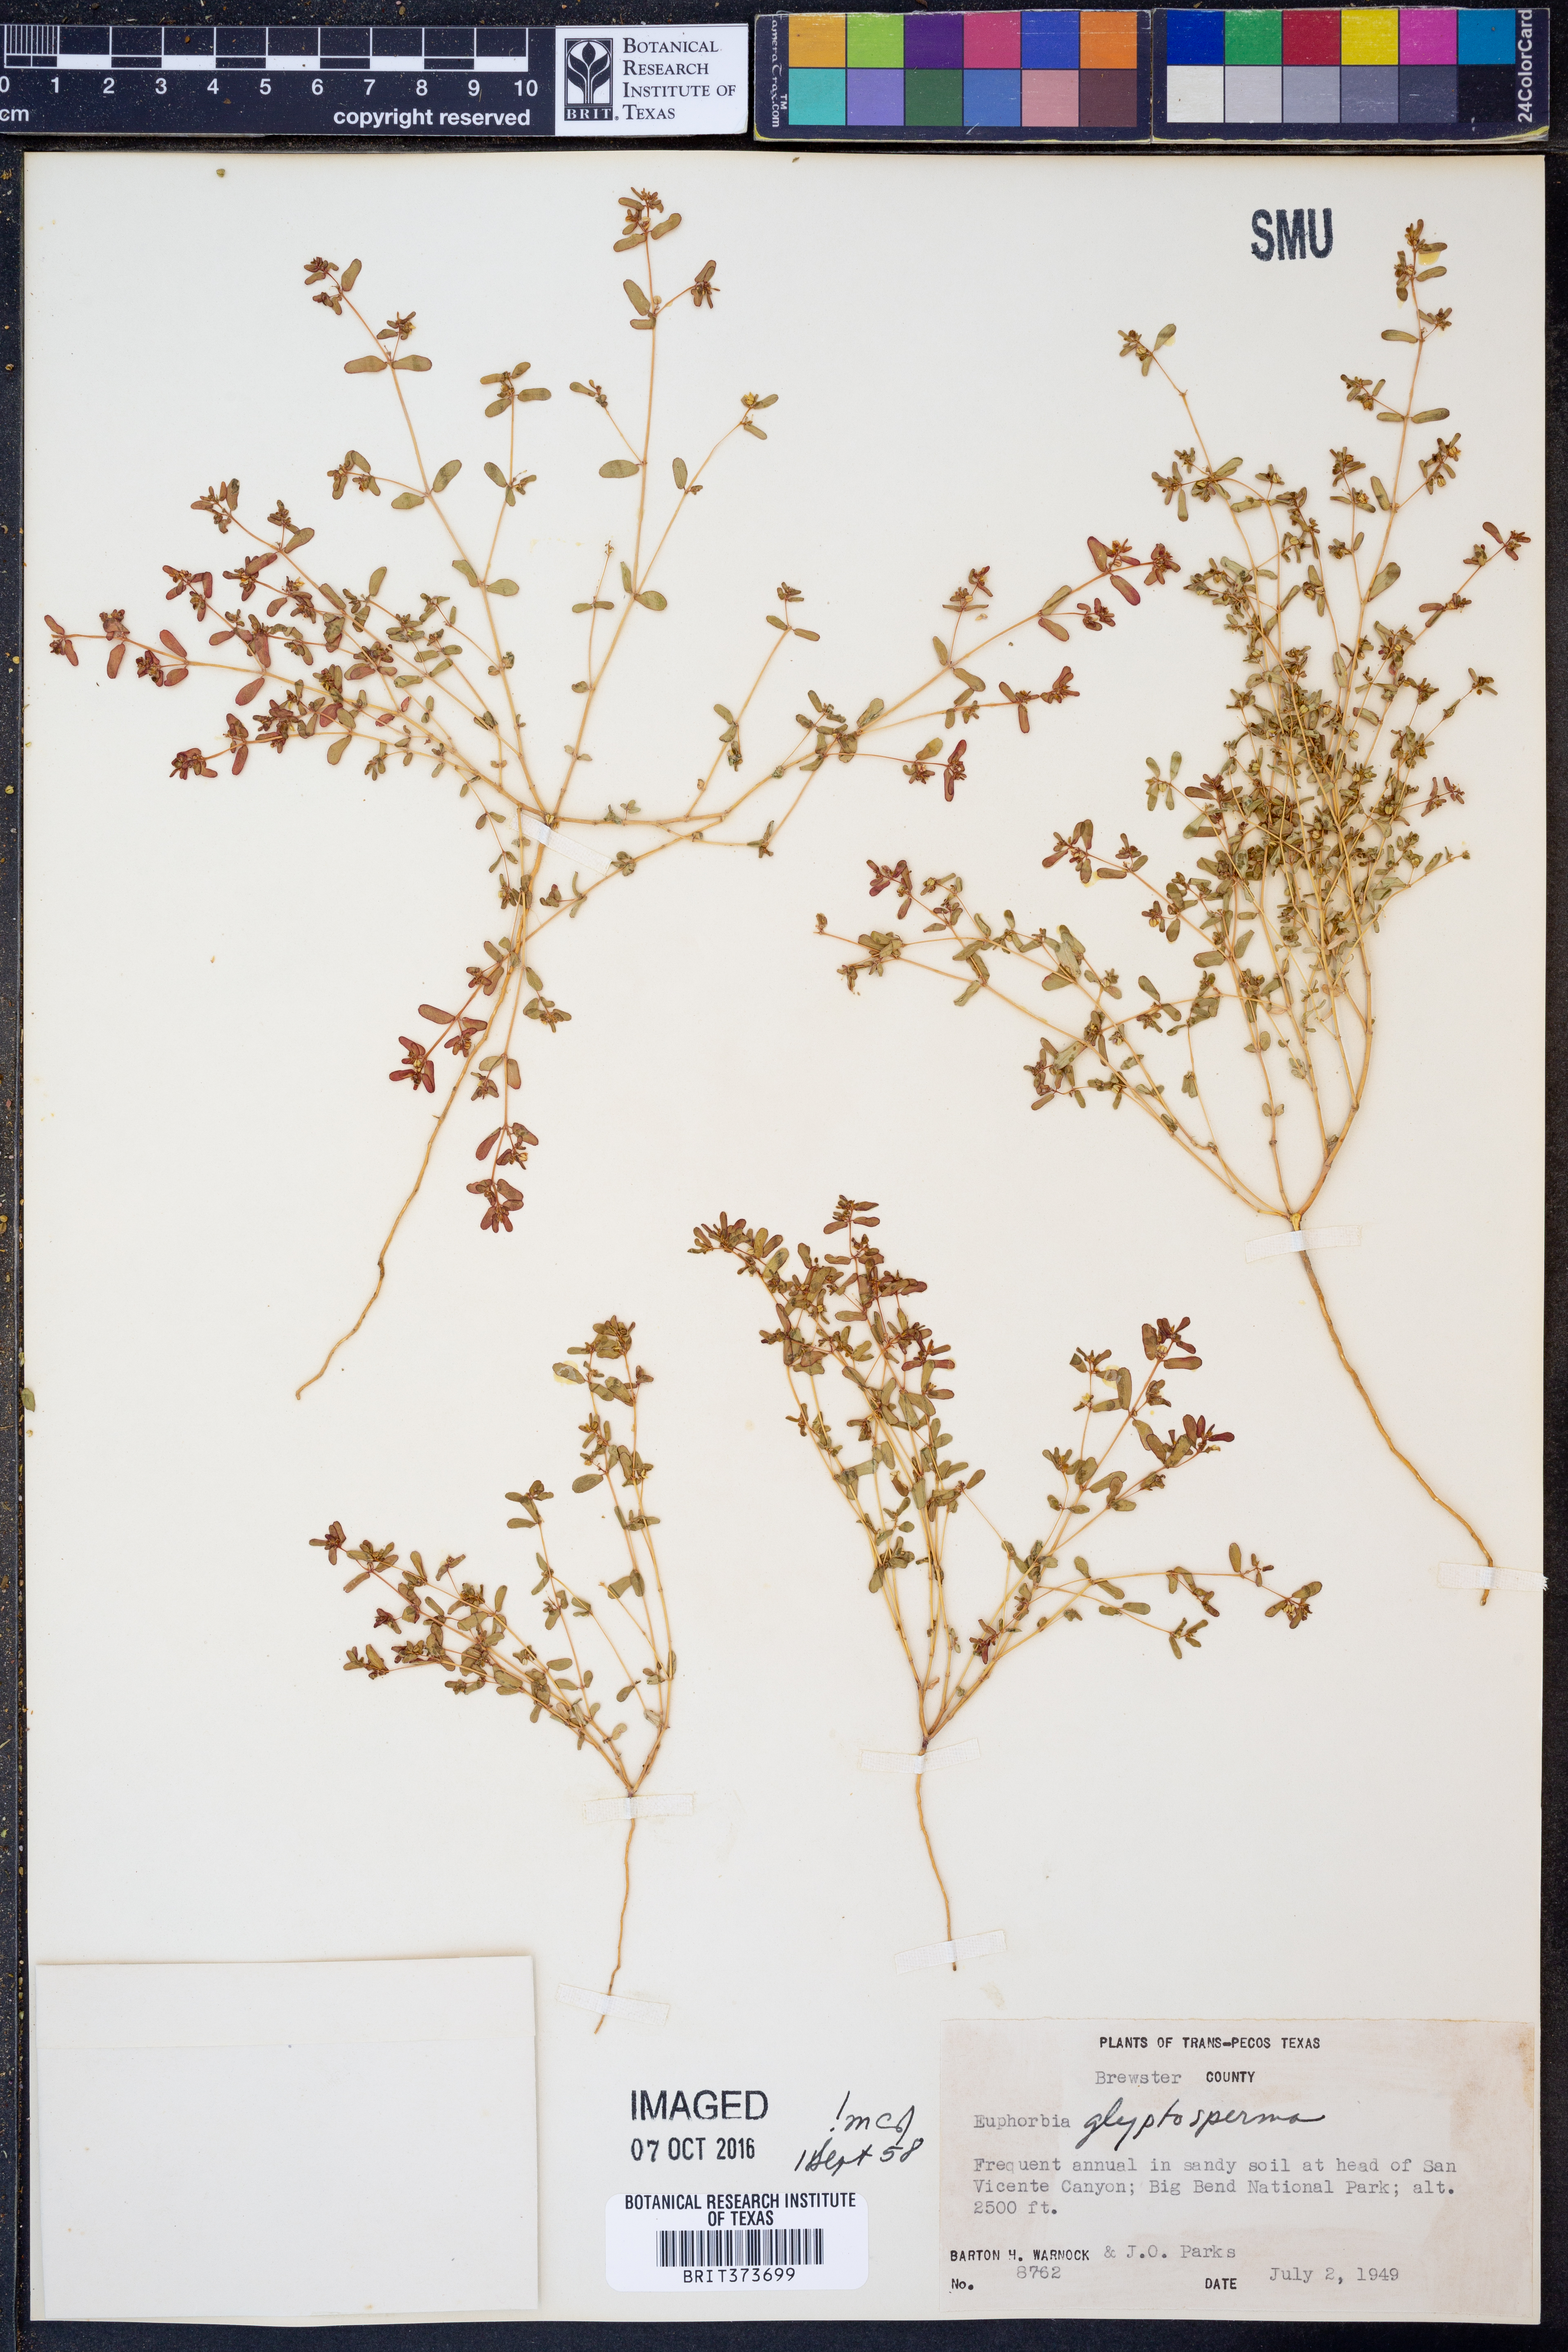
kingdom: Plantae
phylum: Tracheophyta
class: Magnoliopsida
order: Malpighiales
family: Euphorbiaceae
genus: Euphorbia
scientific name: Euphorbia glyptosperma
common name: Corrugate-seeded spurge
